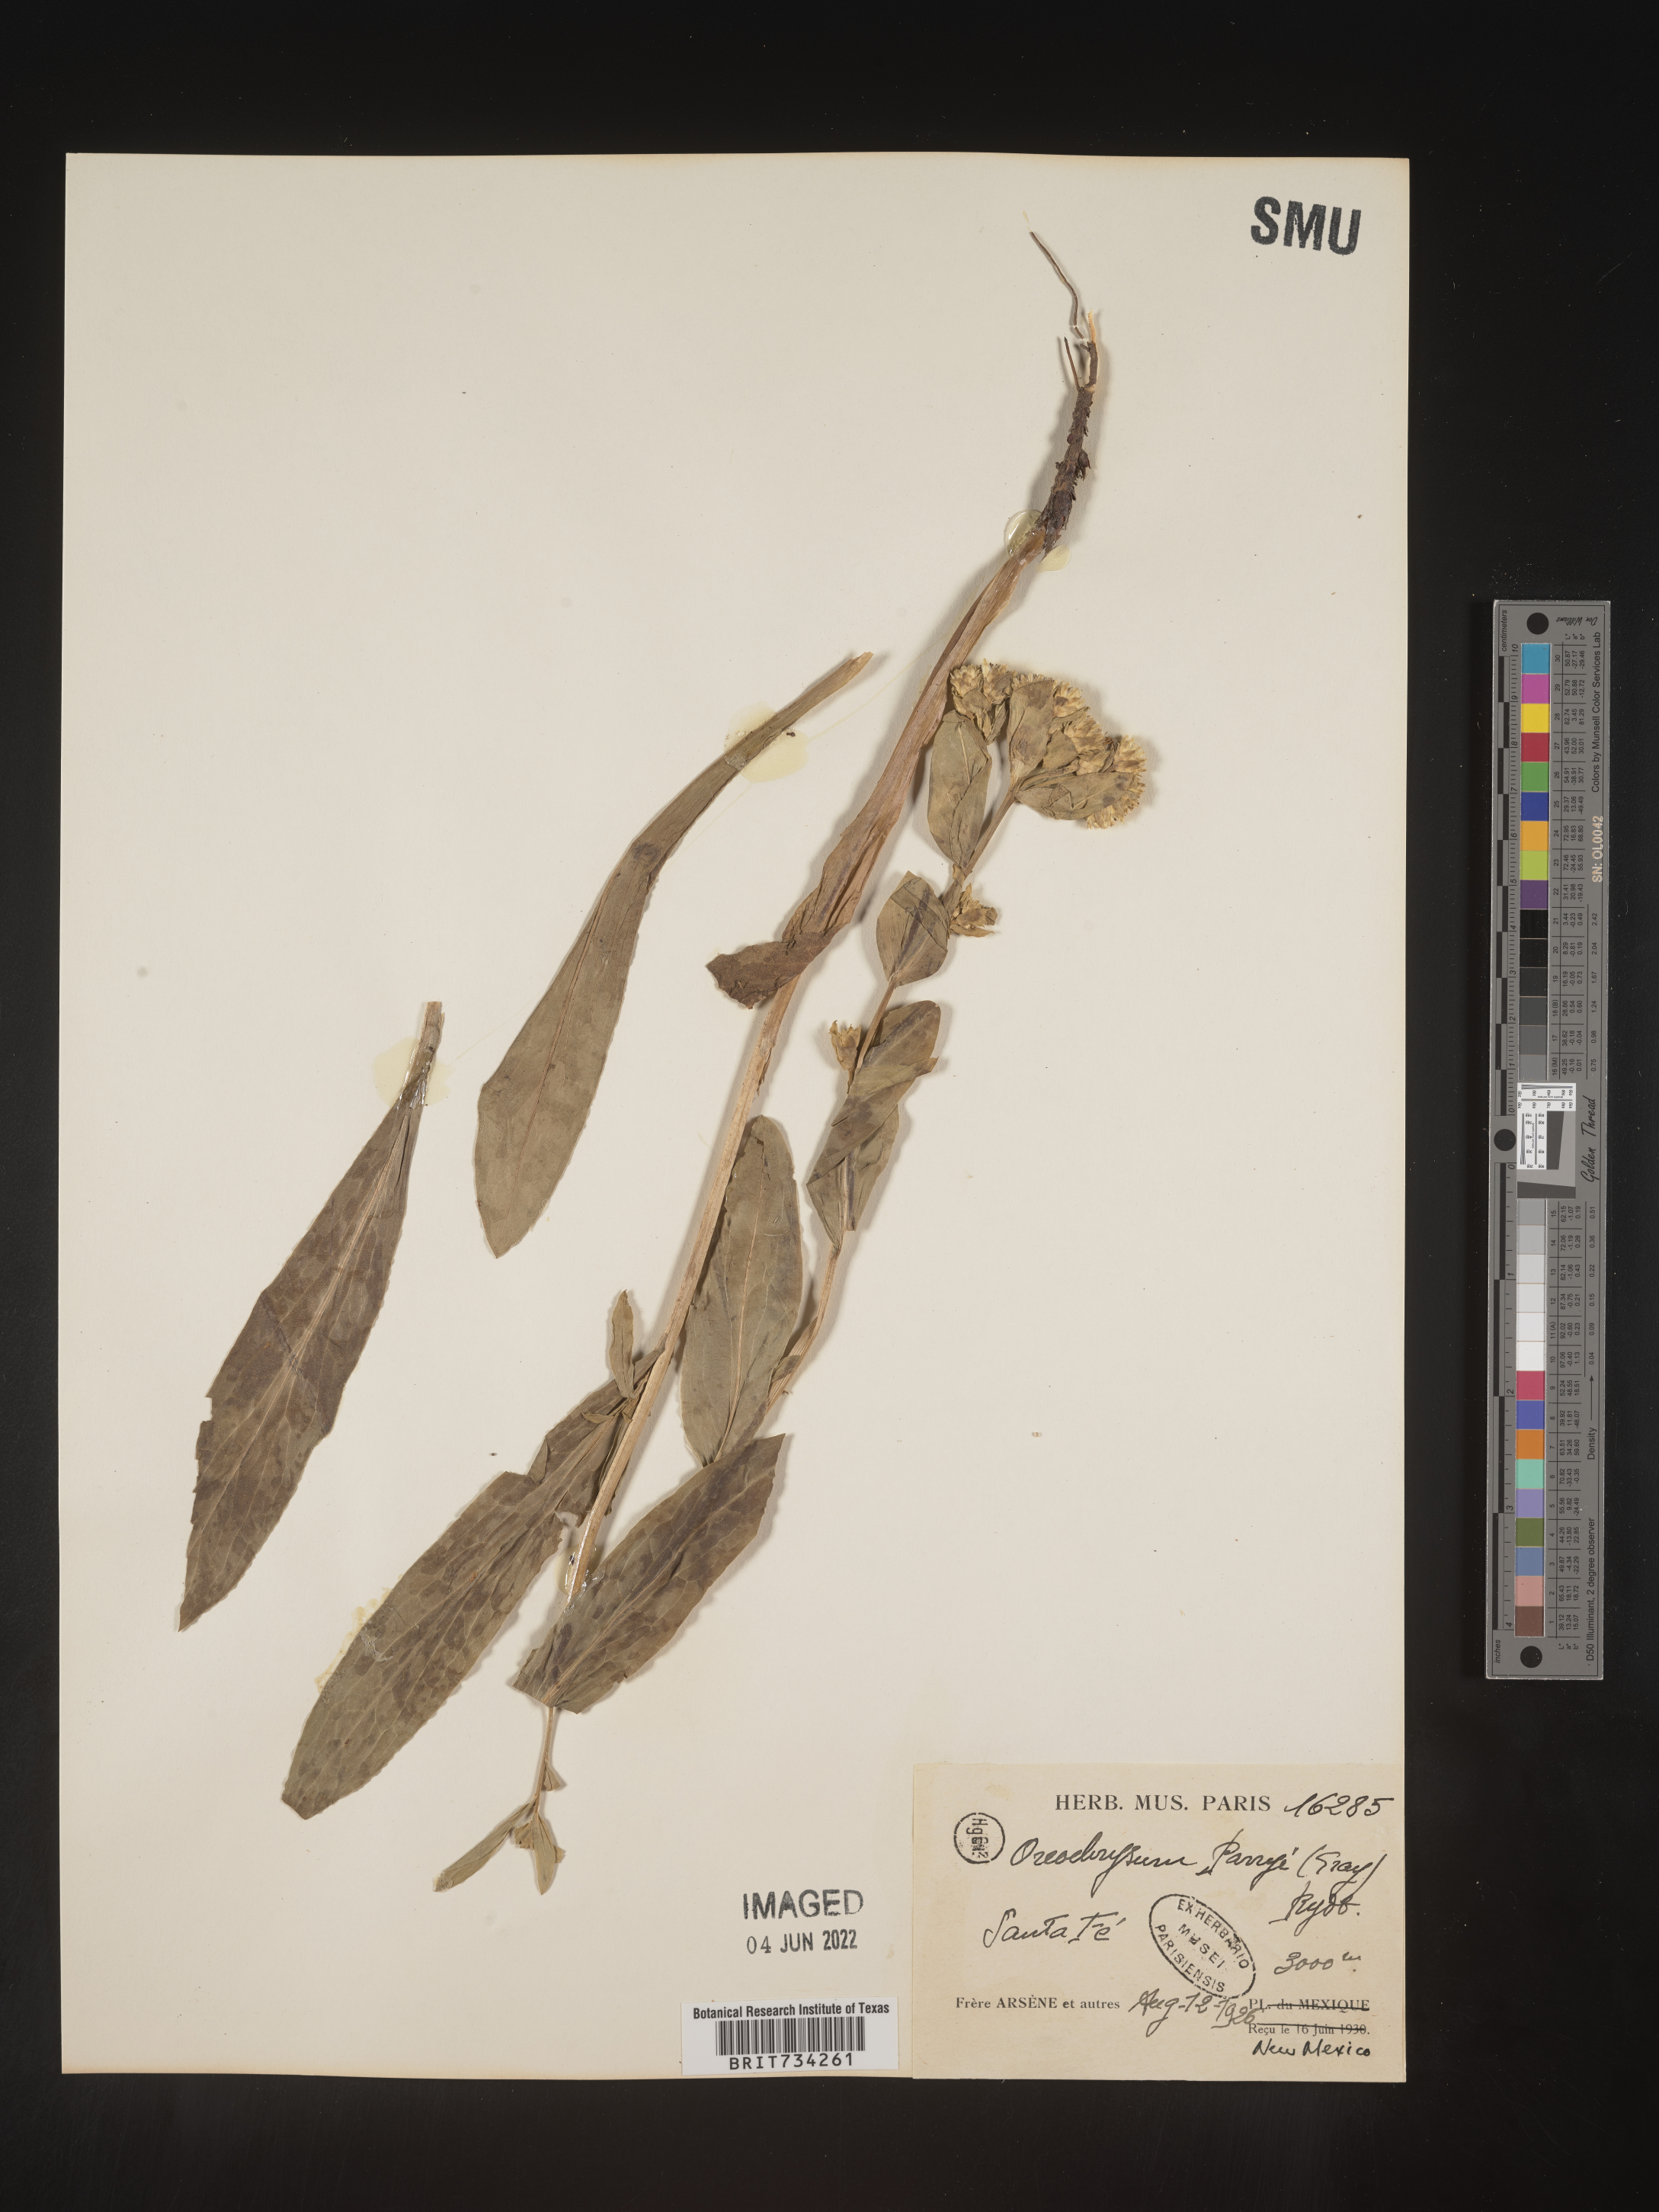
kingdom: Plantae
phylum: Tracheophyta
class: Magnoliopsida
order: Asterales
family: Asteraceae
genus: Oreochrysum
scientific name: Oreochrysum parryi
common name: Parry's goldenweed
